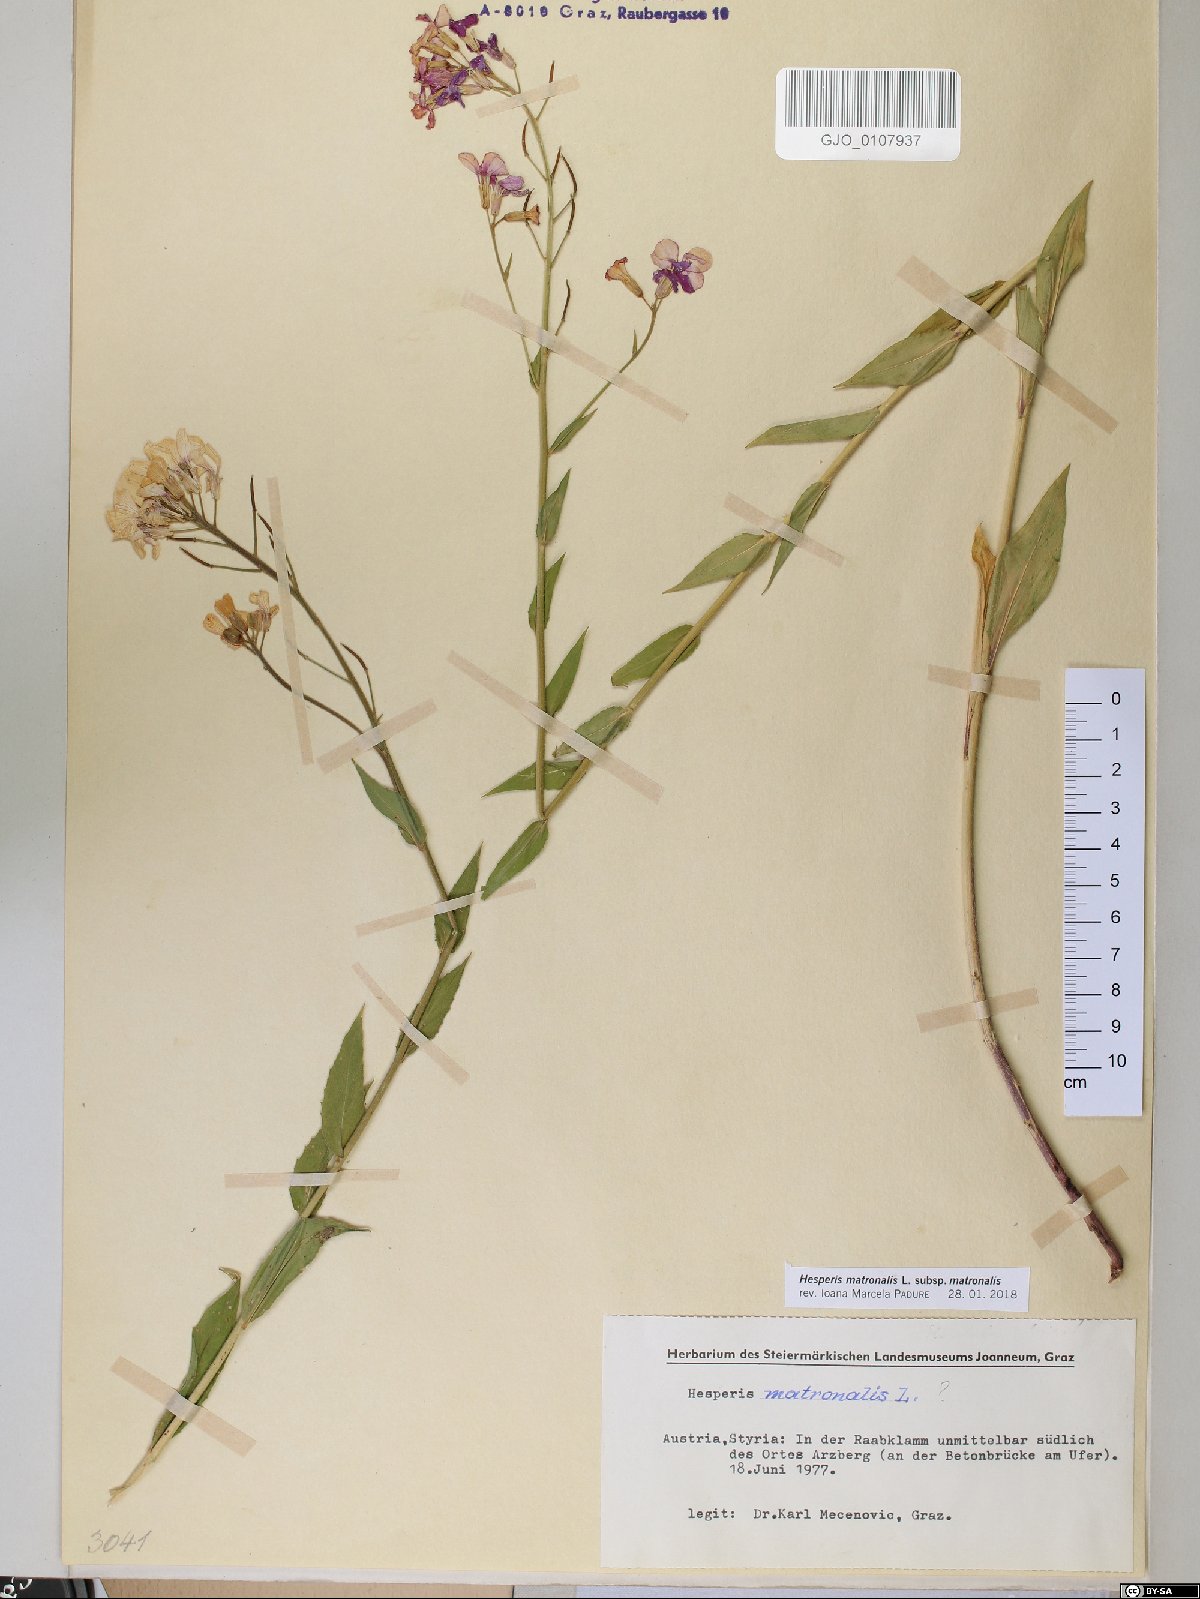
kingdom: Plantae
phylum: Tracheophyta
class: Magnoliopsida
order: Brassicales
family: Brassicaceae
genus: Hesperis
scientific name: Hesperis matronalis
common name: Dame's-violet
